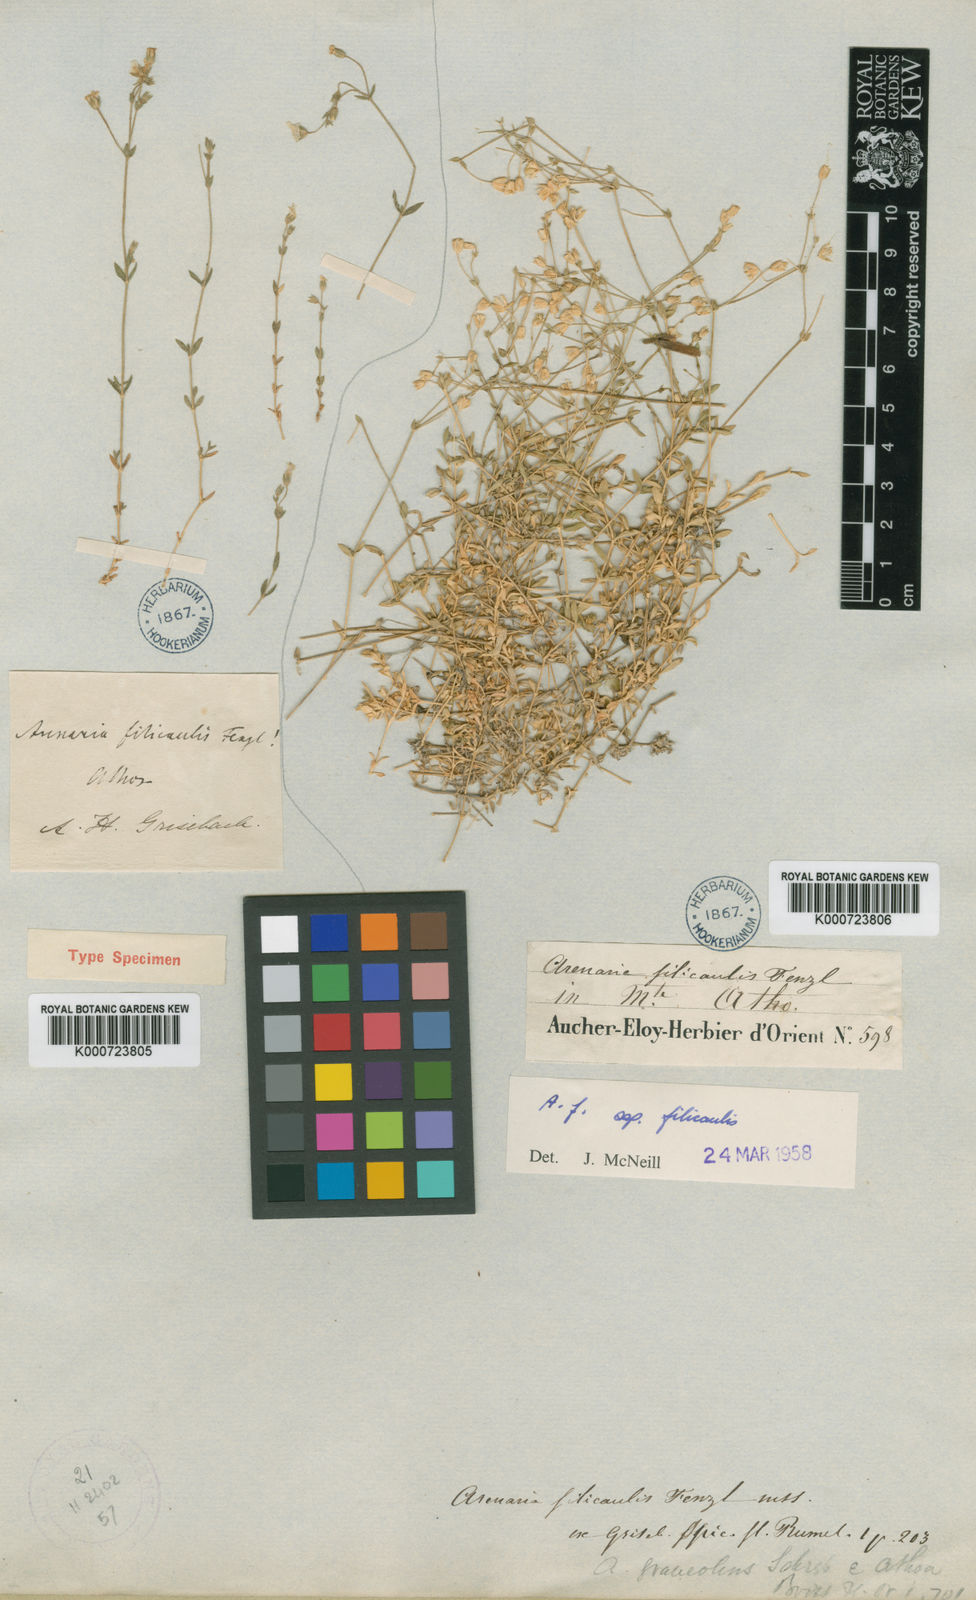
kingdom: Plantae
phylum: Tracheophyta
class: Magnoliopsida
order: Caryophyllales
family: Caryophyllaceae
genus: Arenaria
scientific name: Arenaria
